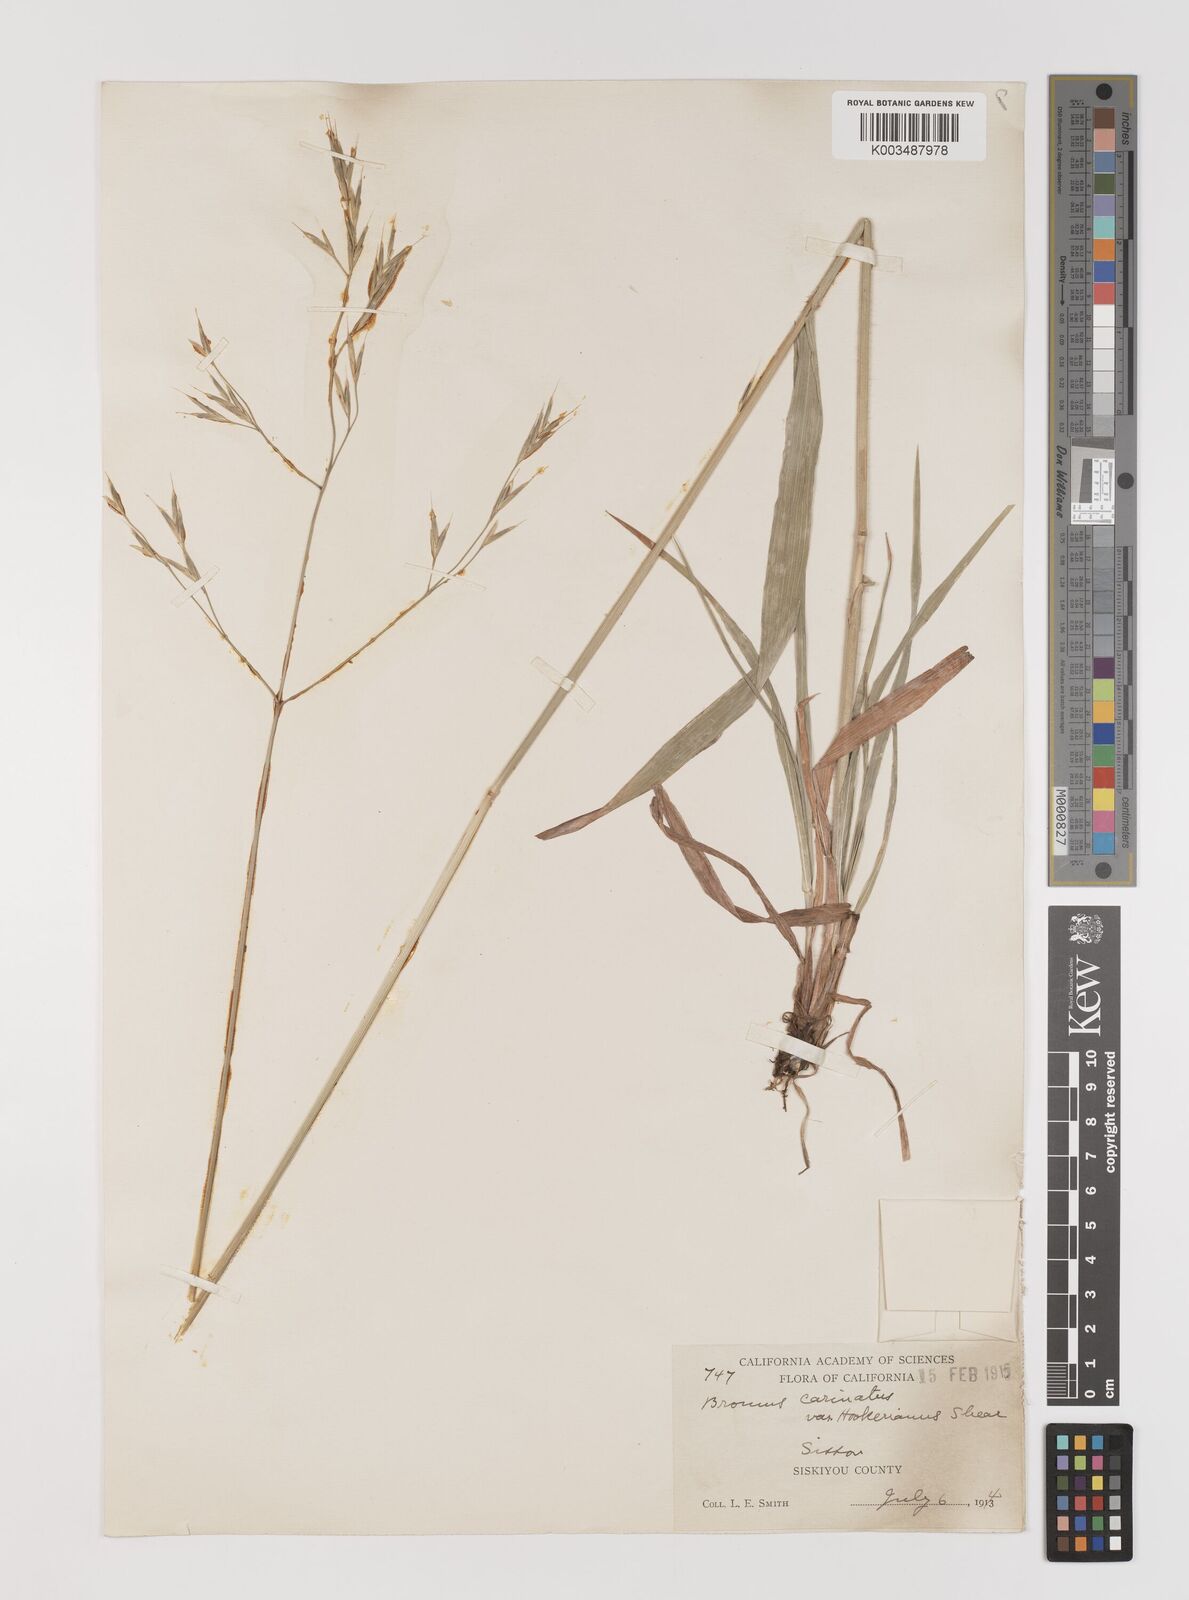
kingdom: Plantae
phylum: Tracheophyta
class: Liliopsida
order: Poales
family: Poaceae
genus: Bromus
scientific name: Bromus marginatus
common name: Western brome
